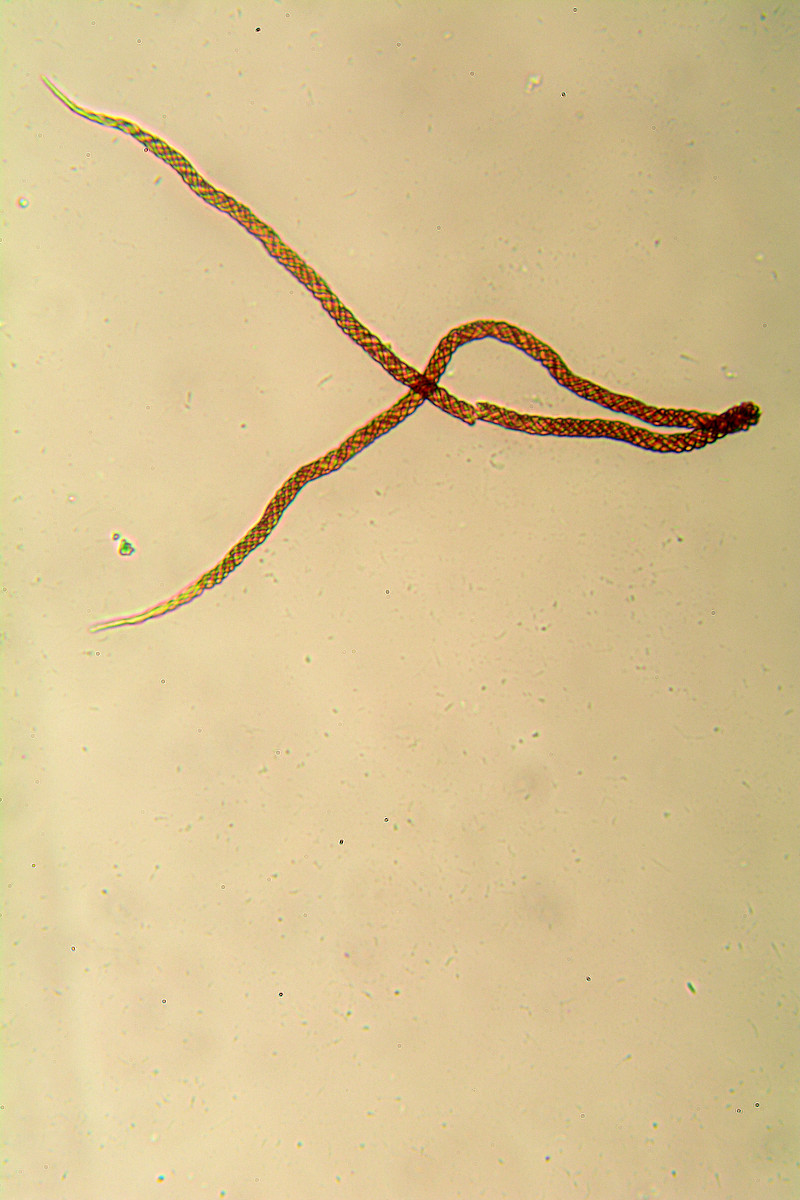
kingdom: Protozoa
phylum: Mycetozoa
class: Myxomycetes
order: Trichiales
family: Trichiaceae
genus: Metatrichia
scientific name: Metatrichia floriformis
